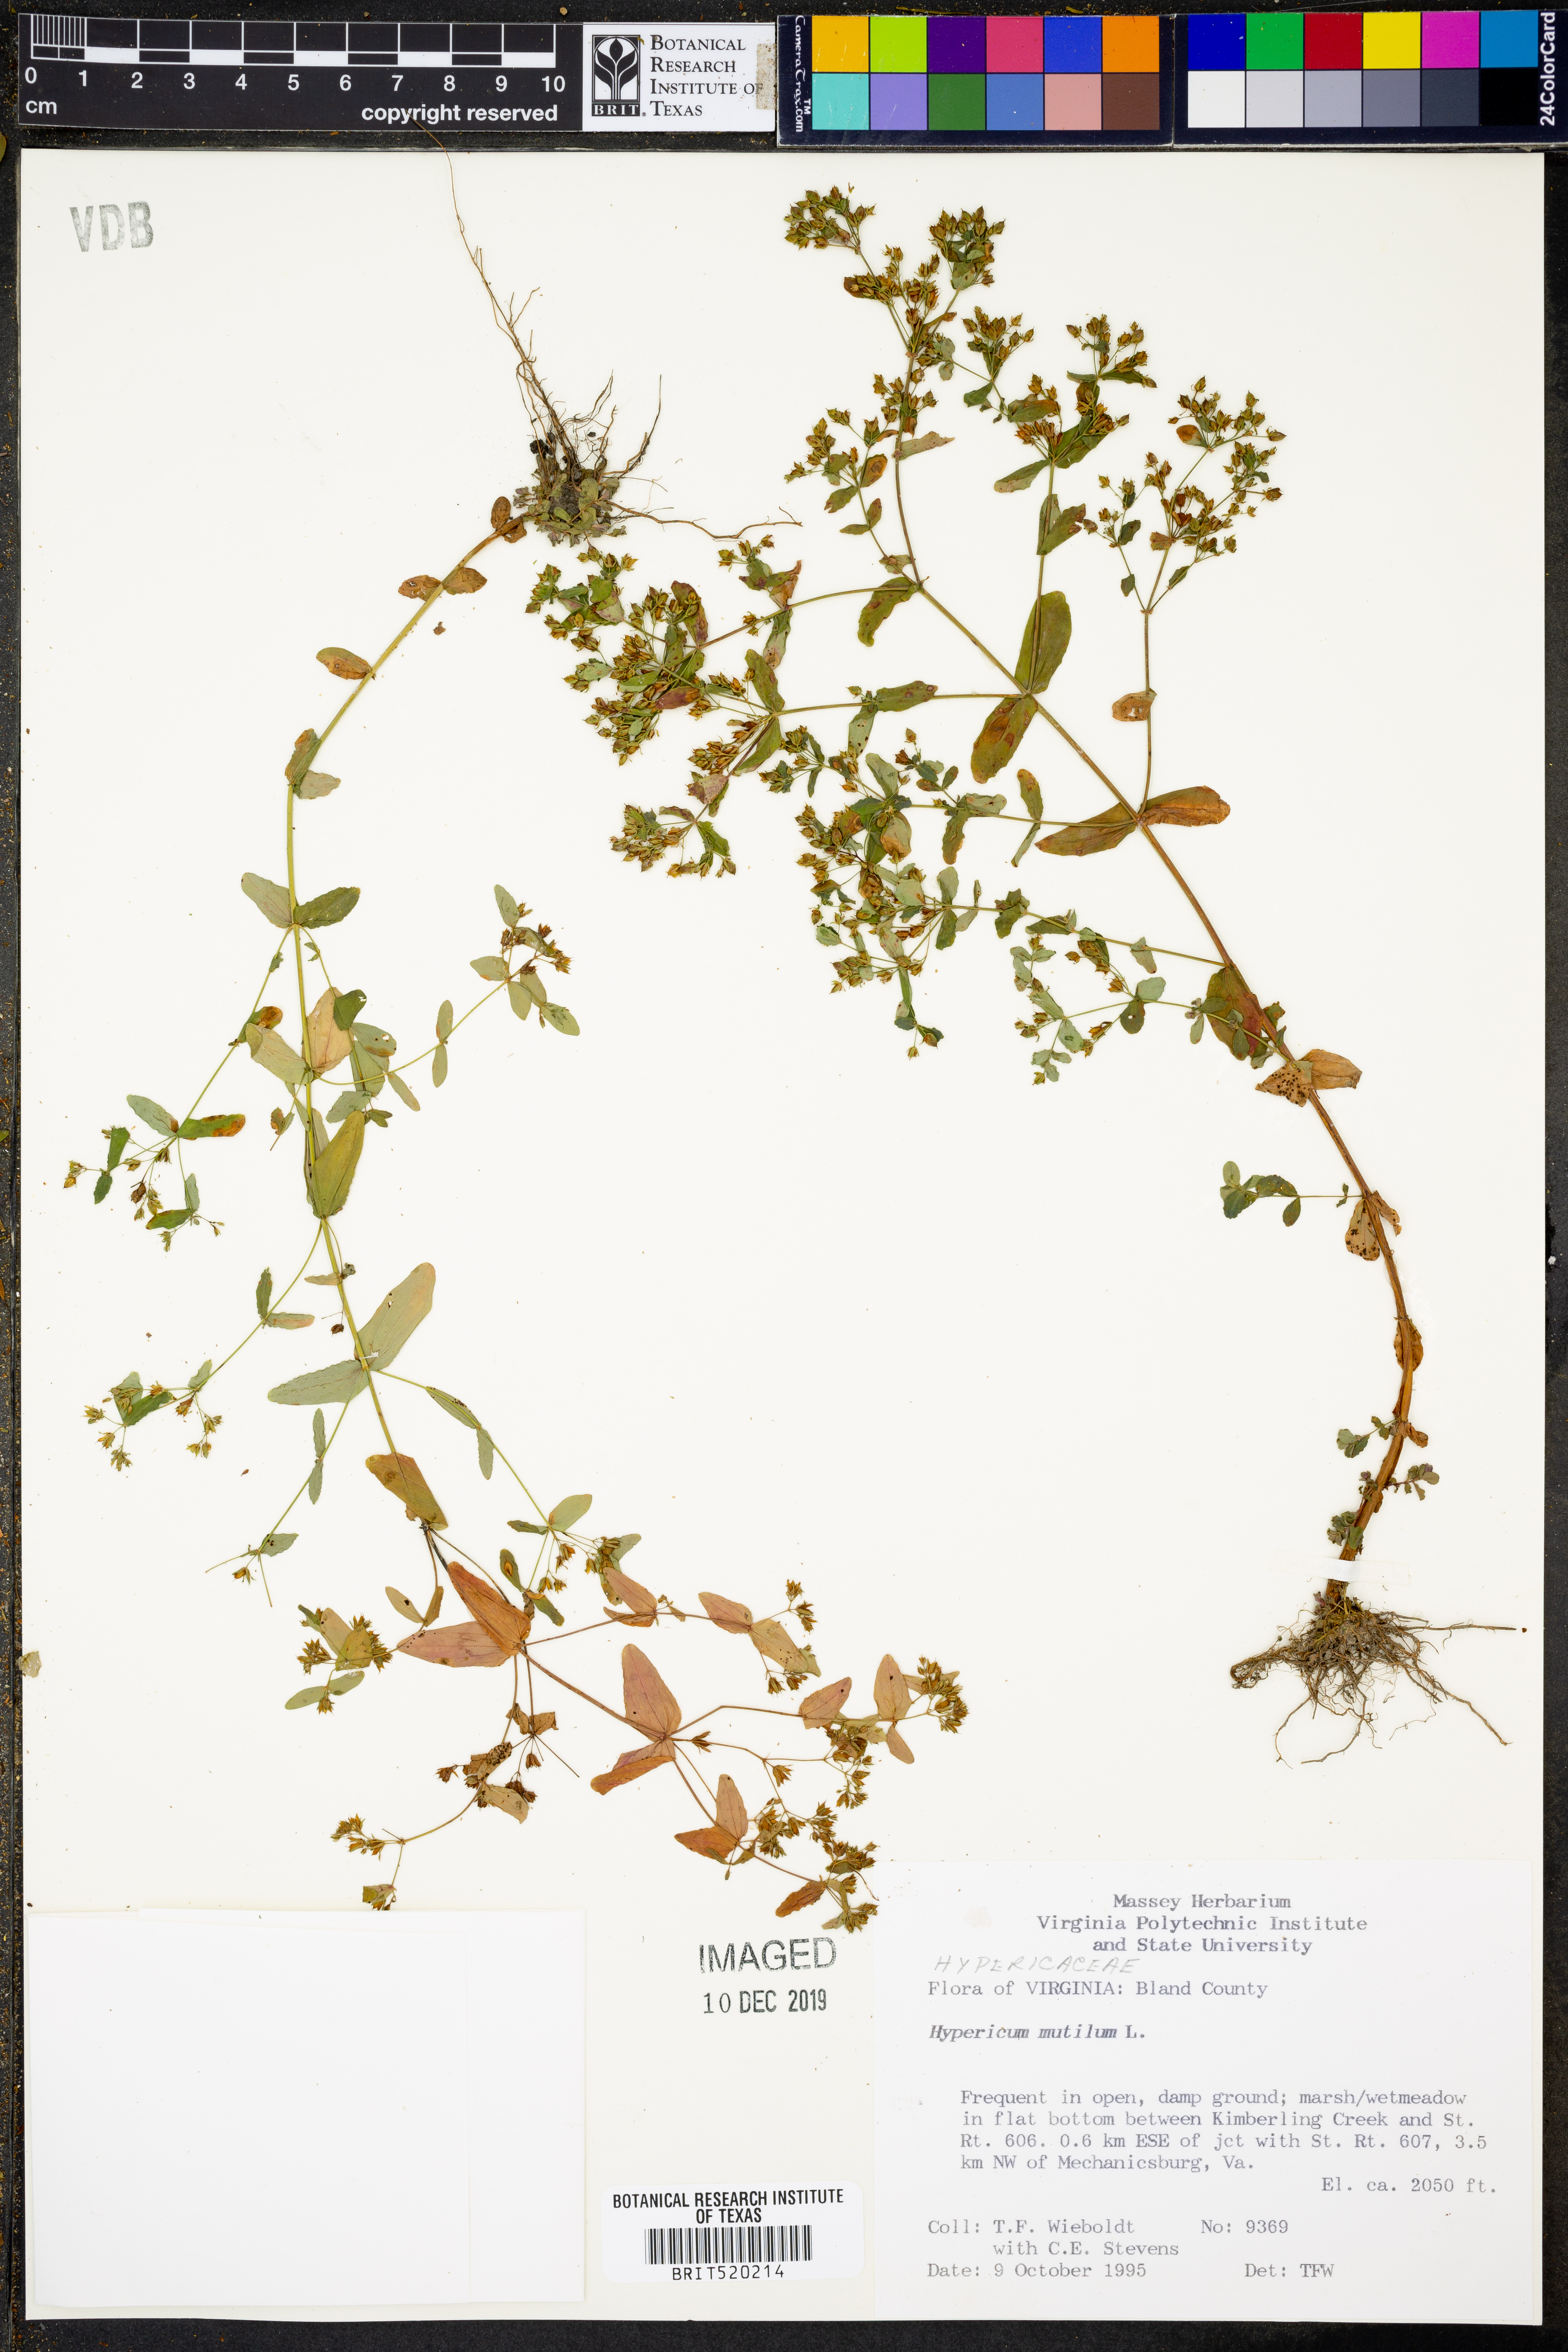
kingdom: Plantae
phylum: Tracheophyta
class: Magnoliopsida
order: Malpighiales
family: Hypericaceae
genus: Hypericum
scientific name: Hypericum mutilum
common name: Dwarf st. john's-wort
